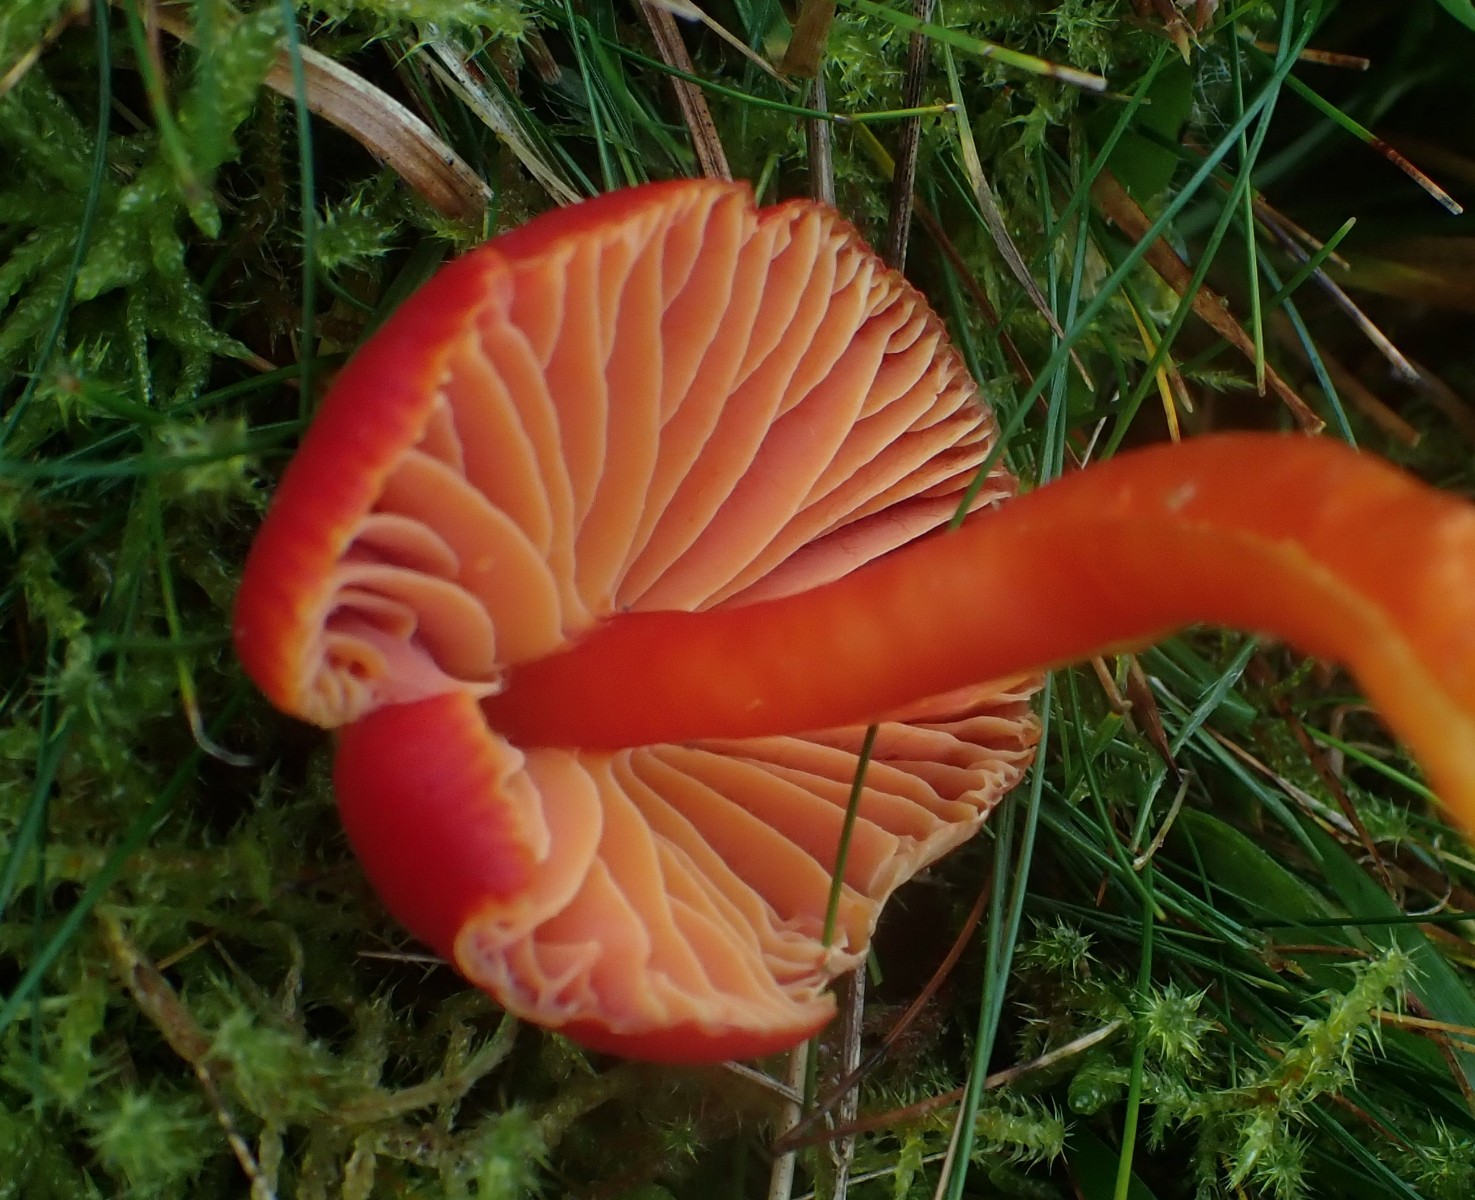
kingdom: Fungi
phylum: Basidiomycota
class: Agaricomycetes
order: Agaricales
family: Hygrophoraceae
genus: Hygrocybe
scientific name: Hygrocybe coccinea
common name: cinnober-vokshat
